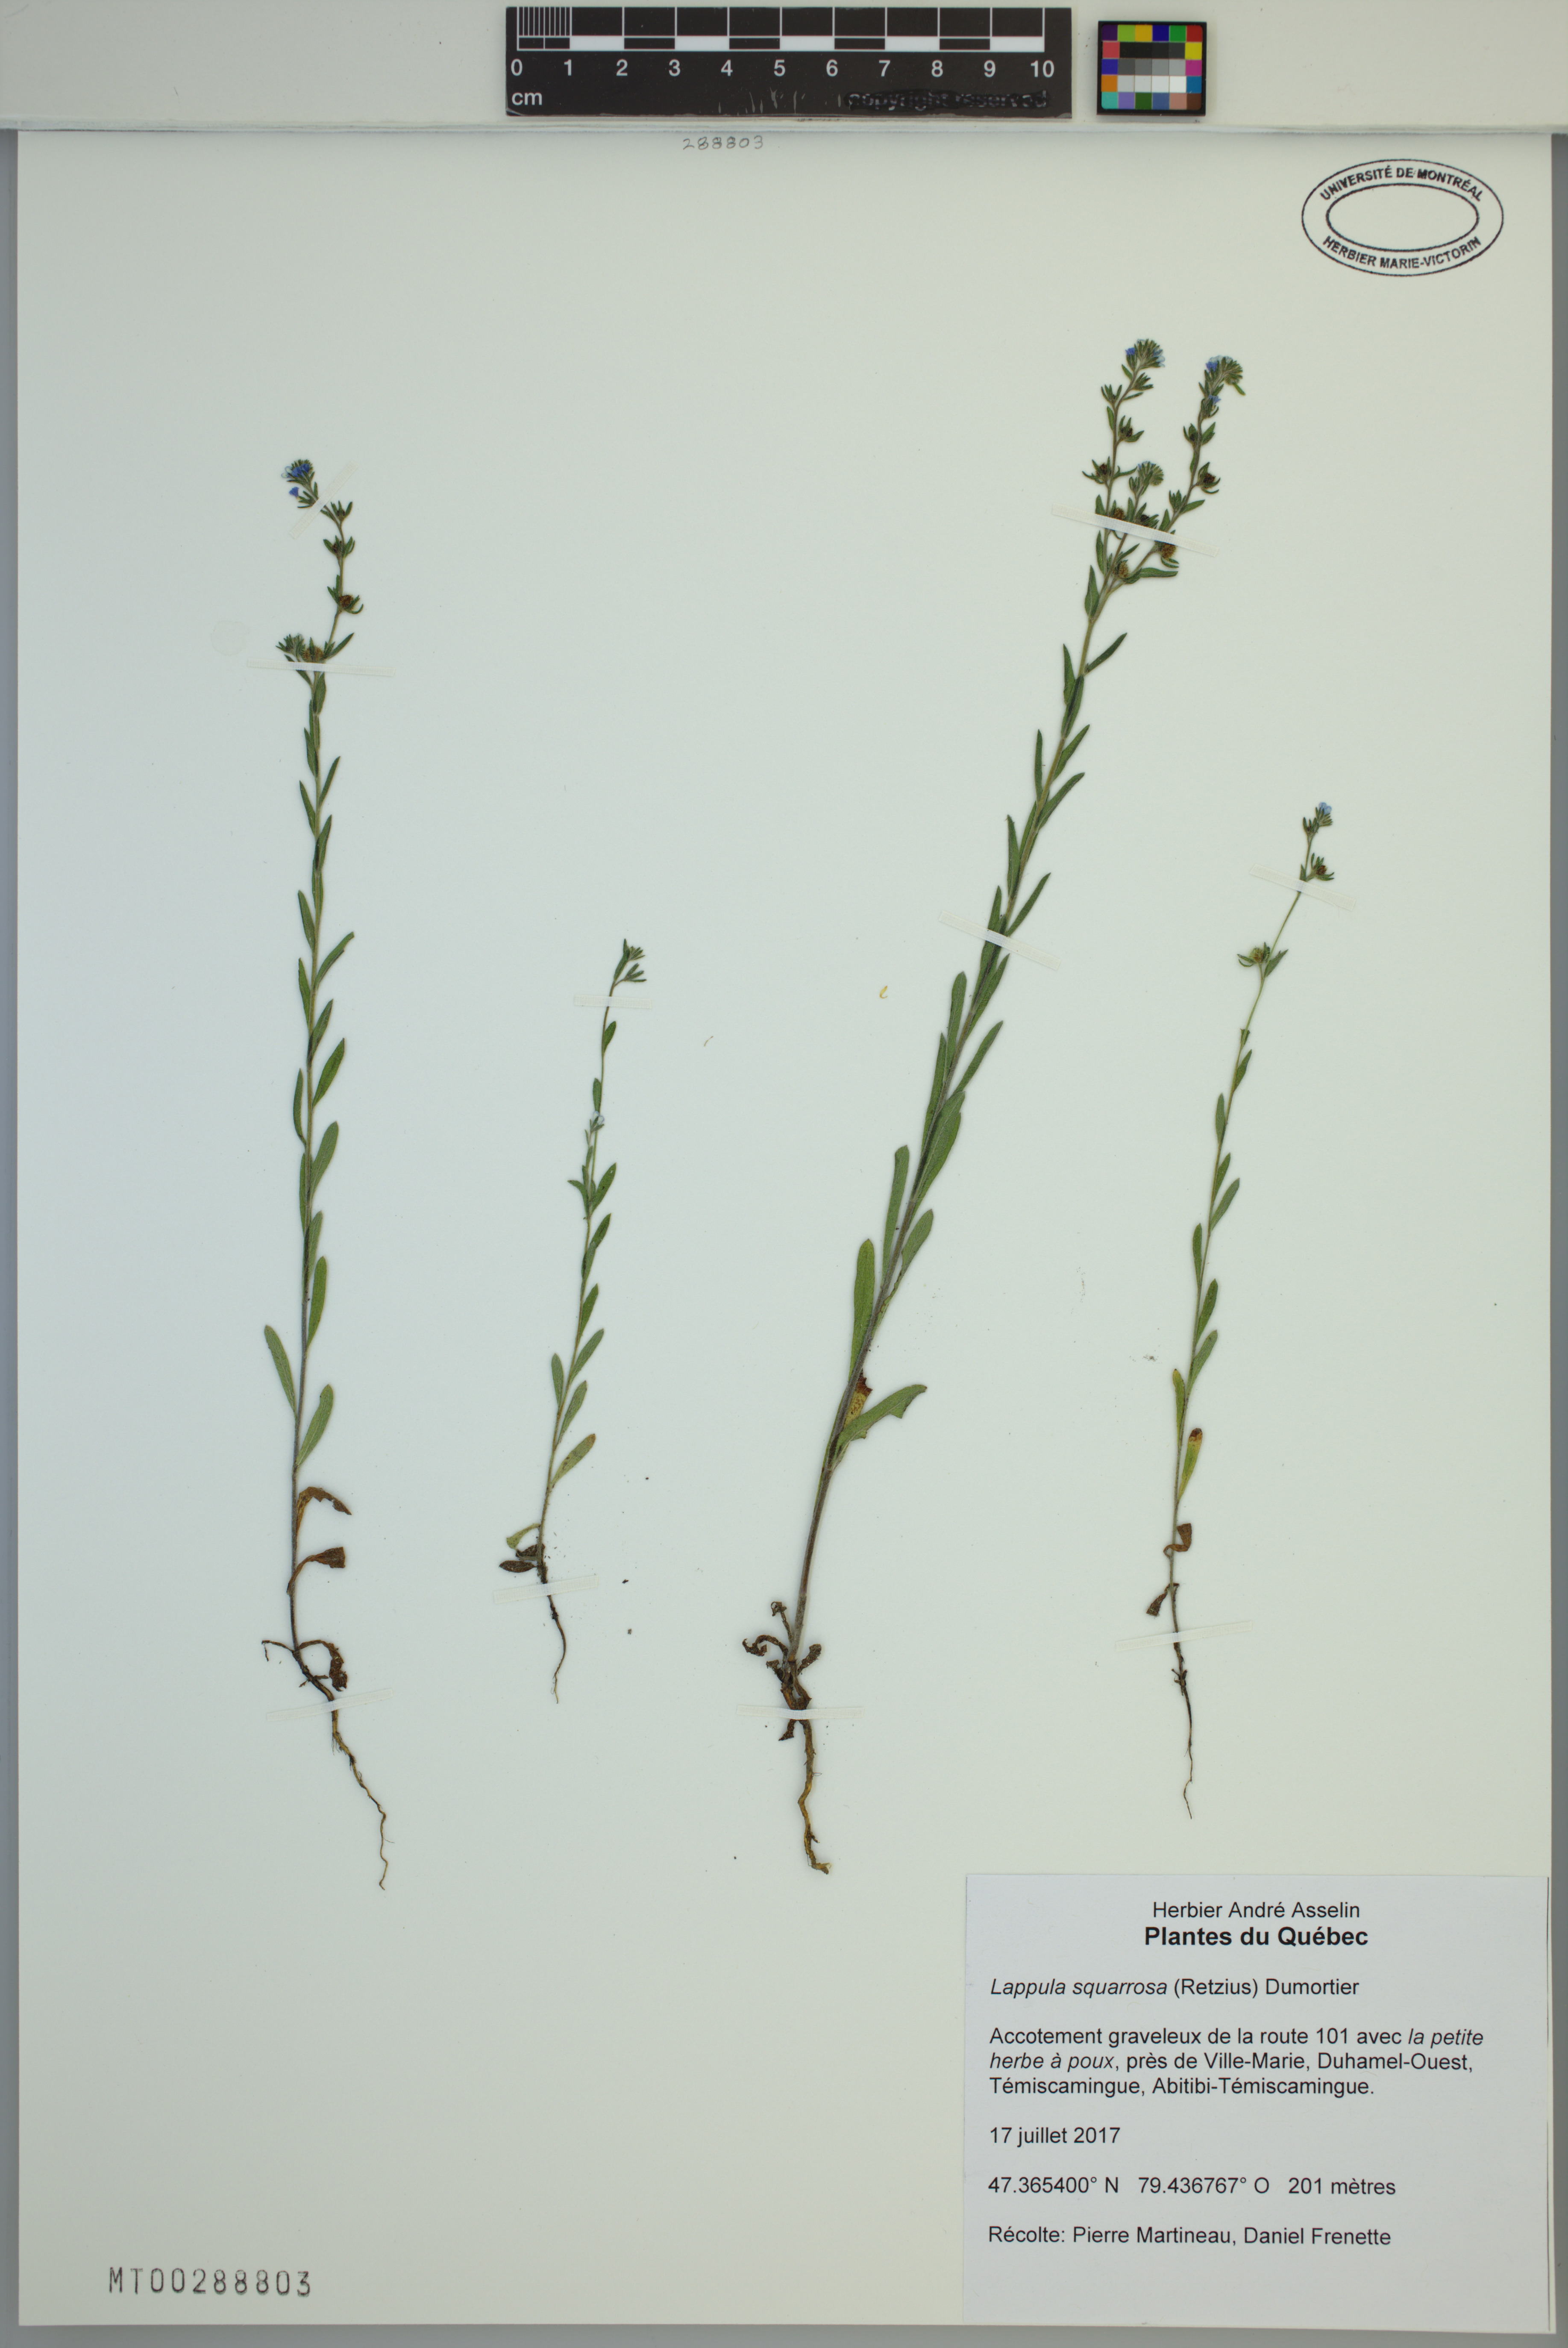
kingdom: Plantae
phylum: Tracheophyta
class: Magnoliopsida
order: Boraginales
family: Boraginaceae
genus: Lappula
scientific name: Lappula squarrosa
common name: European stickseed
